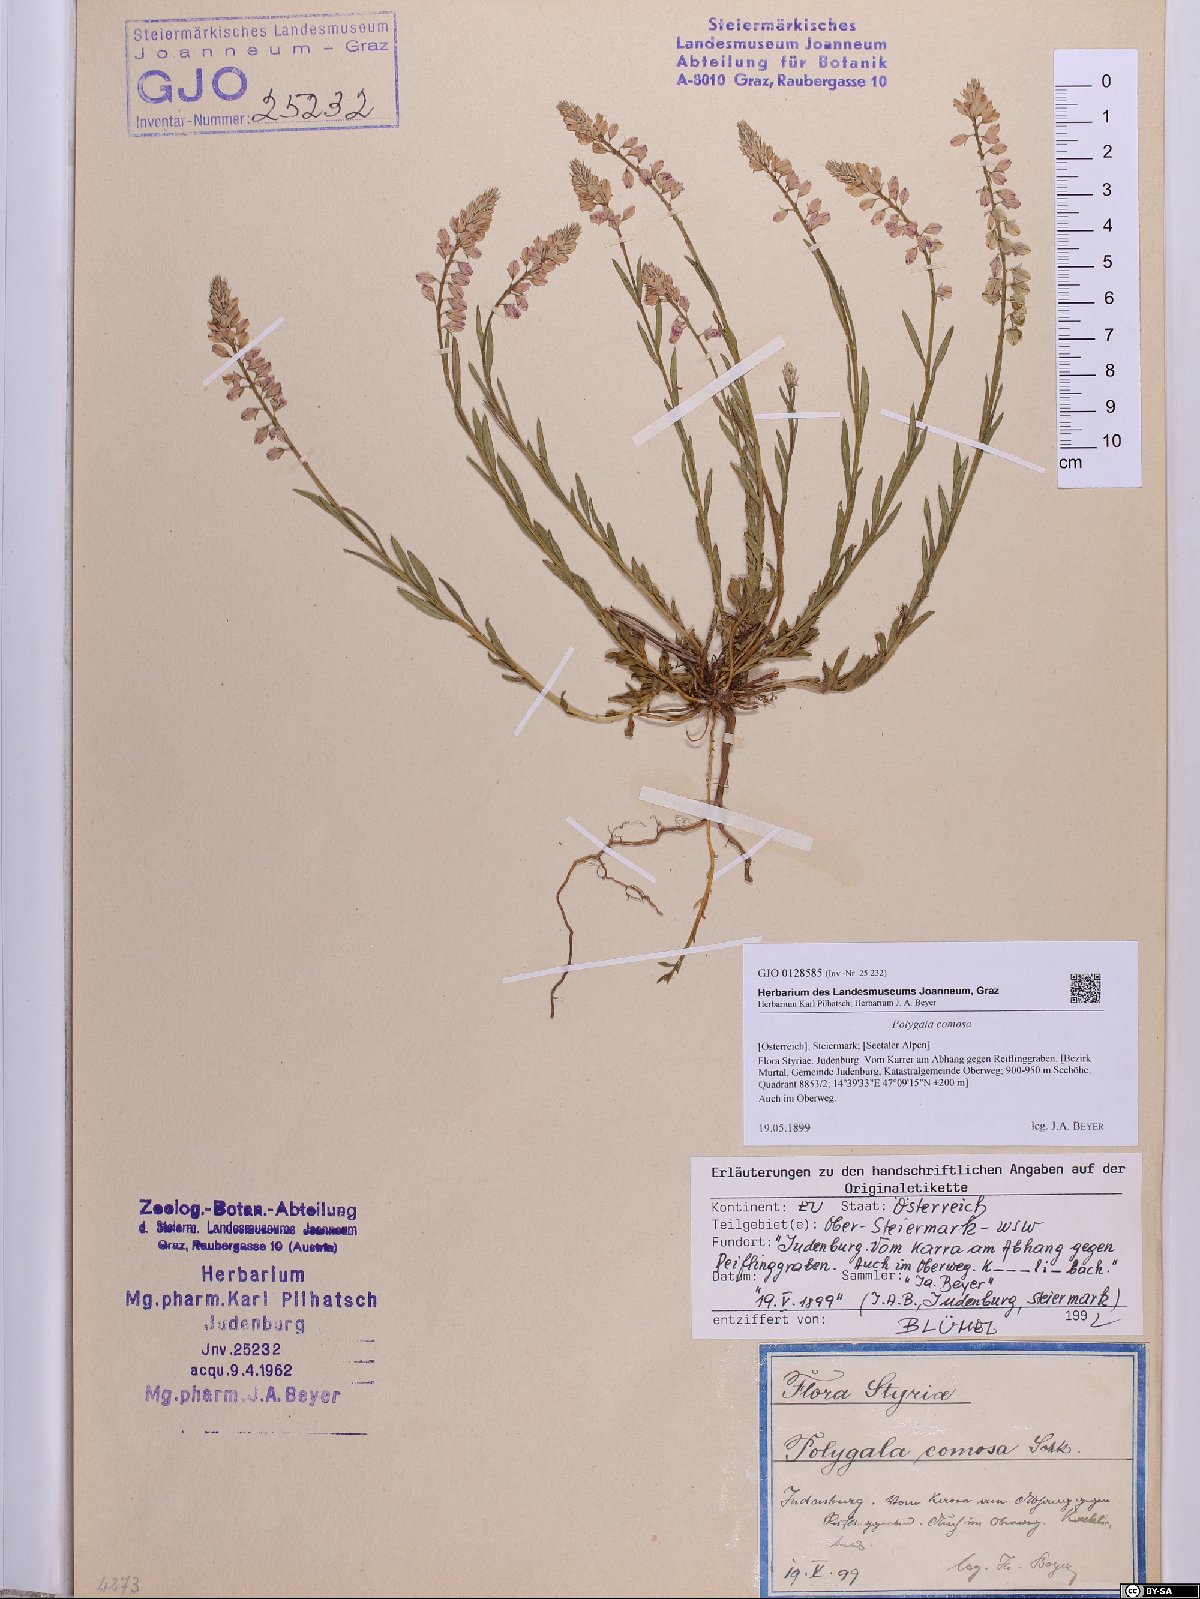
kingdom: Plantae
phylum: Tracheophyta
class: Magnoliopsida
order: Fabales
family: Polygalaceae
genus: Polygala
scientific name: Polygala comosa
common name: Tufted milkwort
